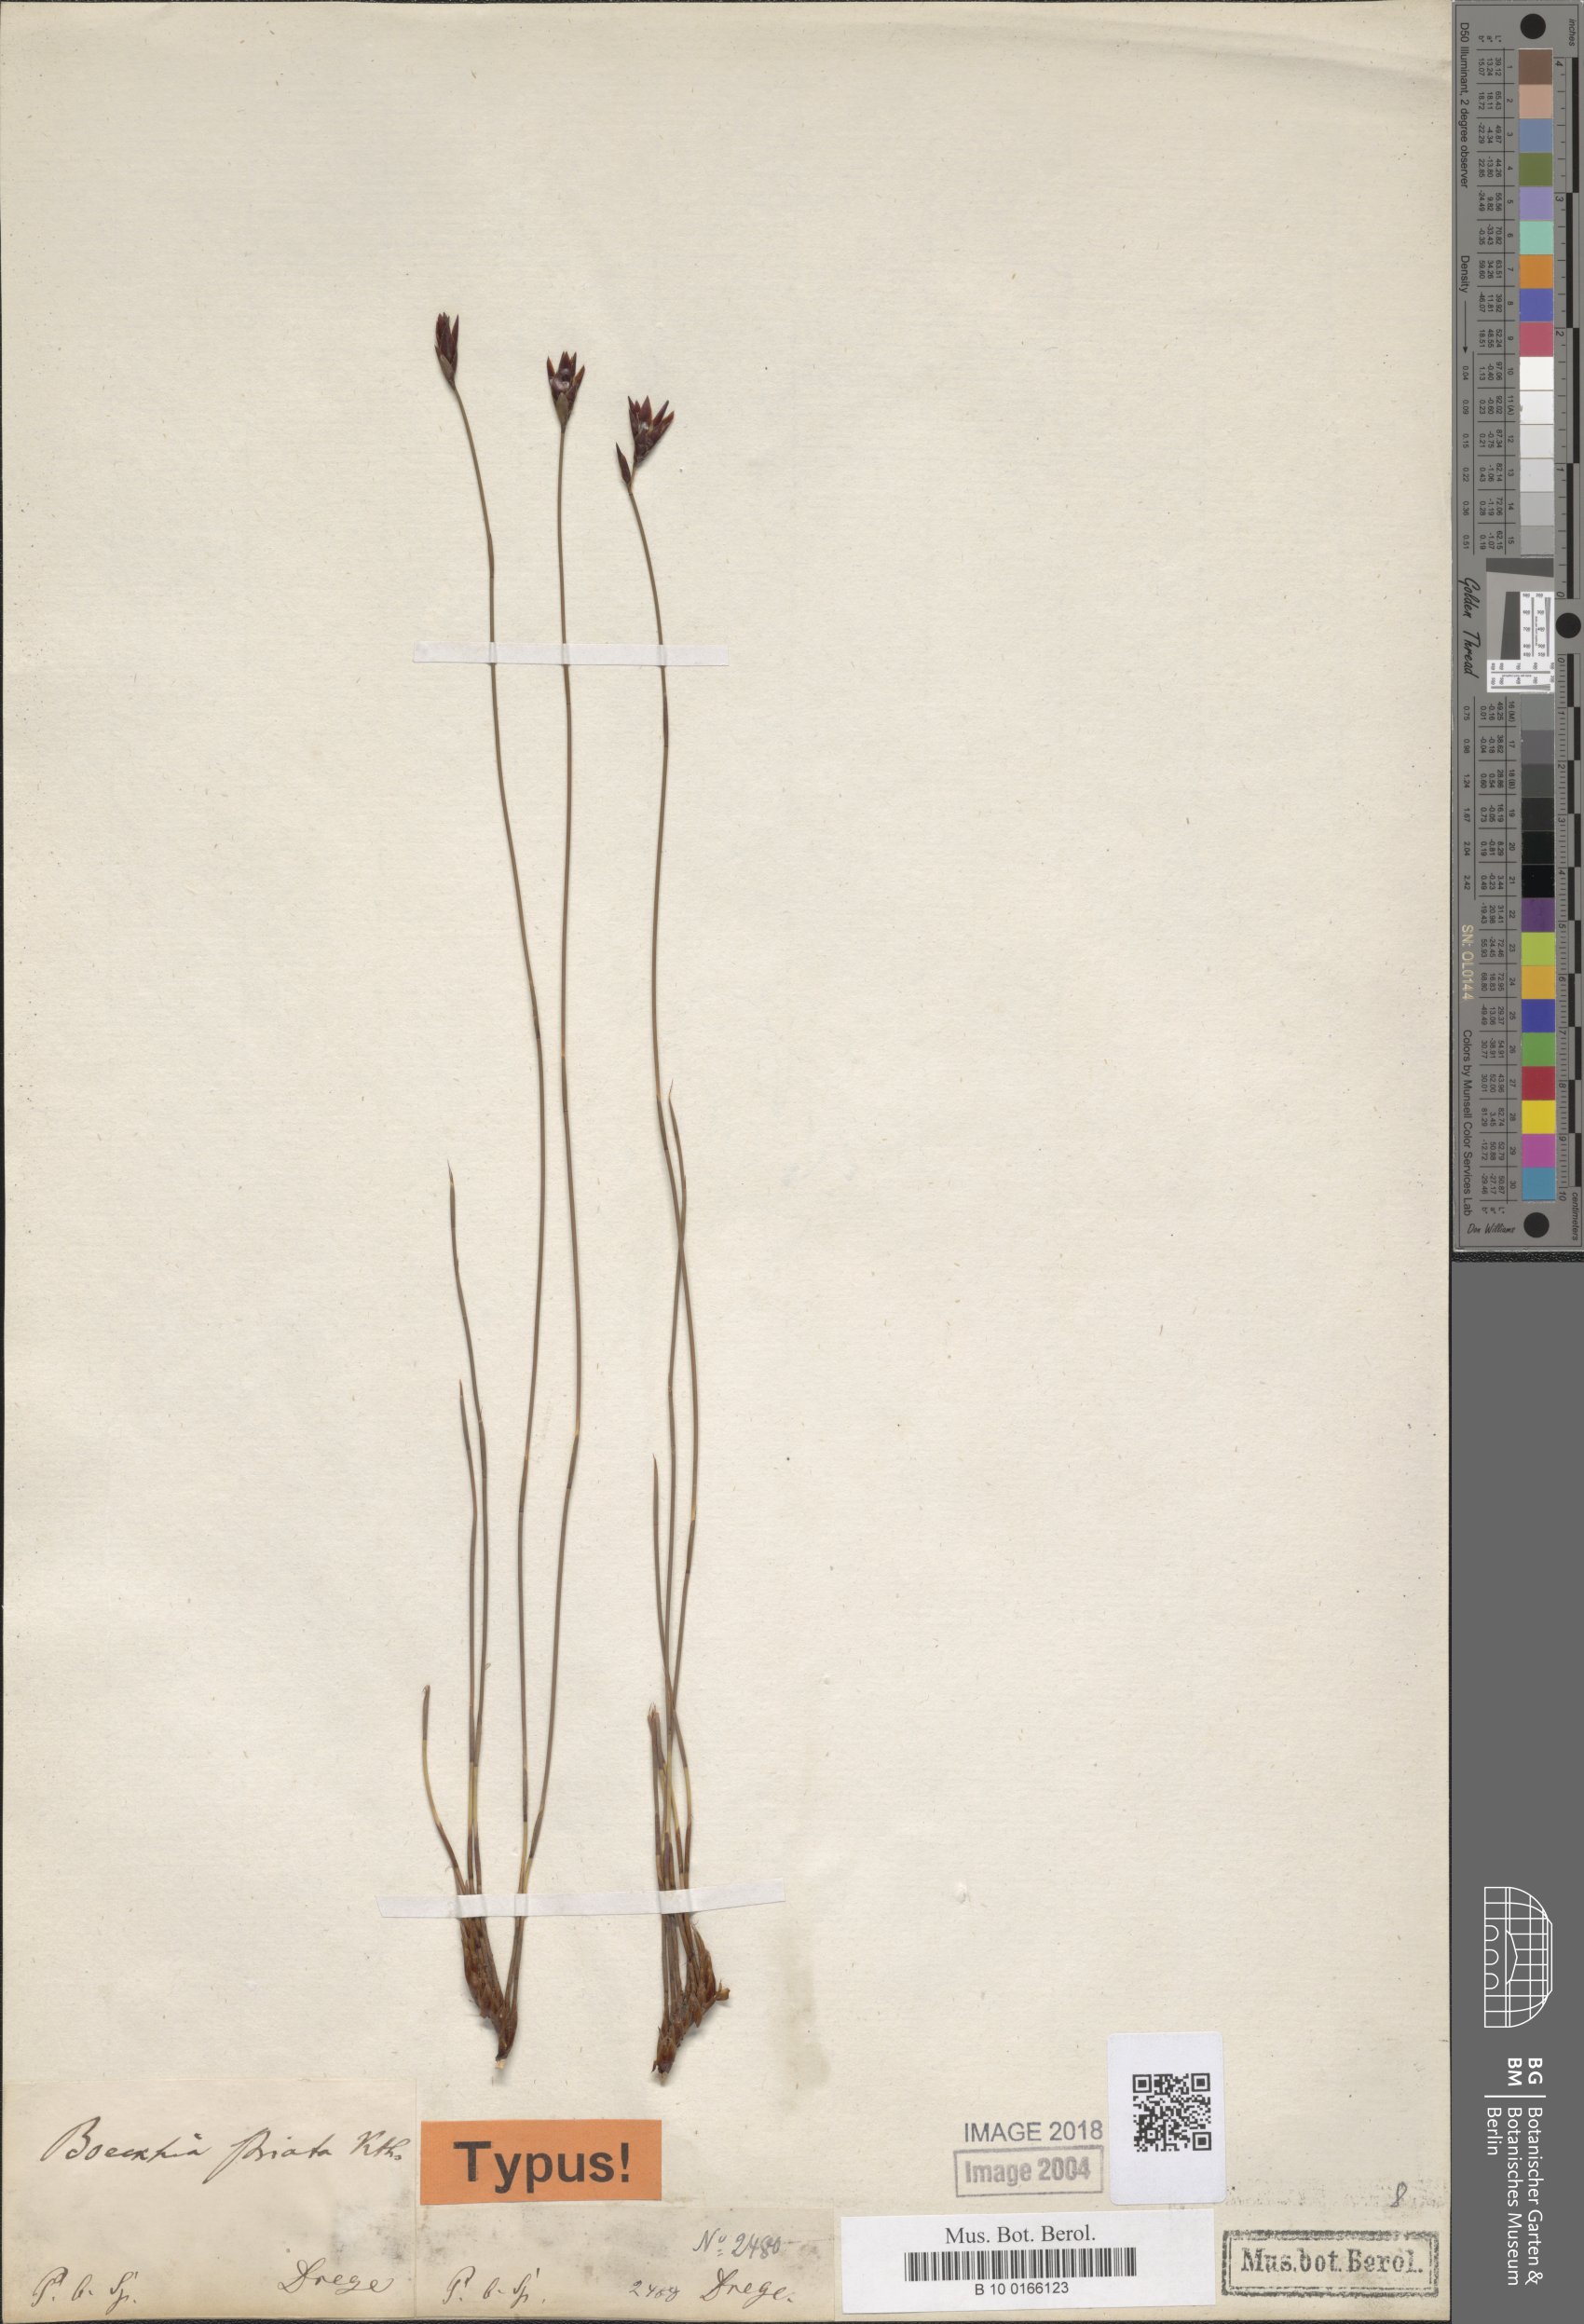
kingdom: Plantae
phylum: Tracheophyta
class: Liliopsida
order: Poales
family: Restionaceae
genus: Hypodiscus
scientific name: Hypodiscus striatus
